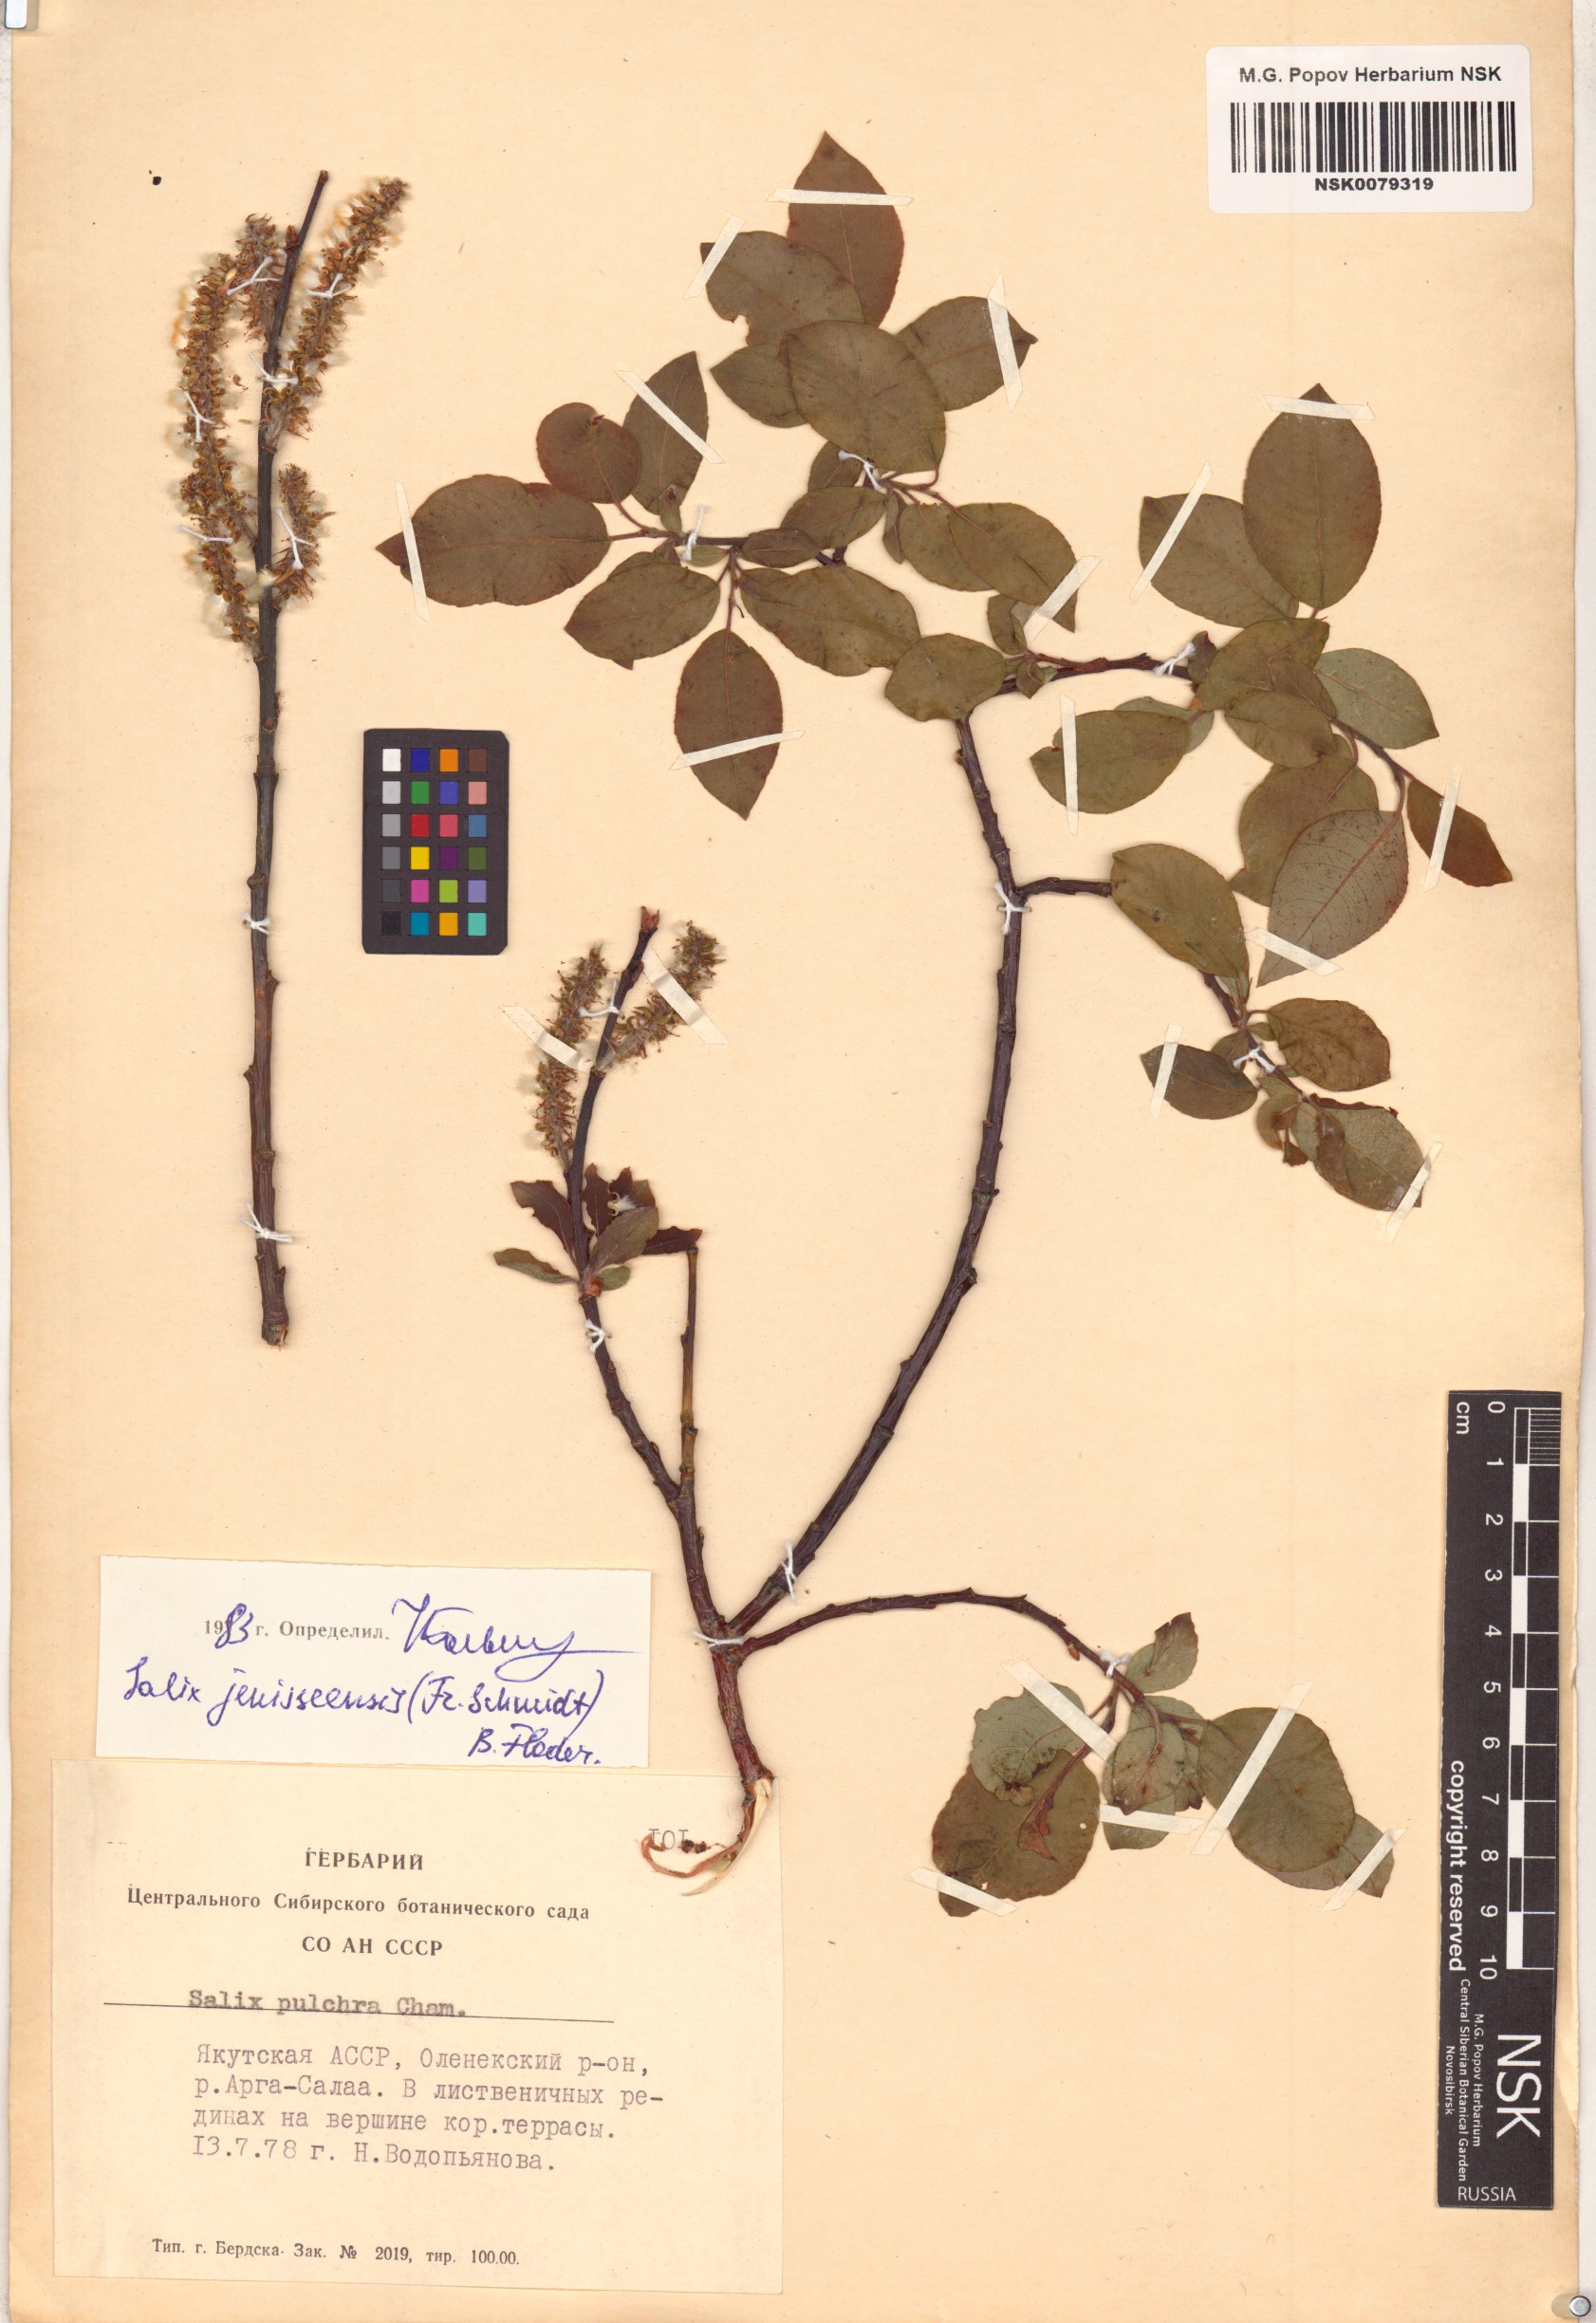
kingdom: Plantae
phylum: Tracheophyta
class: Magnoliopsida
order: Malpighiales
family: Salicaceae
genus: Salix
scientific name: Salix jenisseensis
